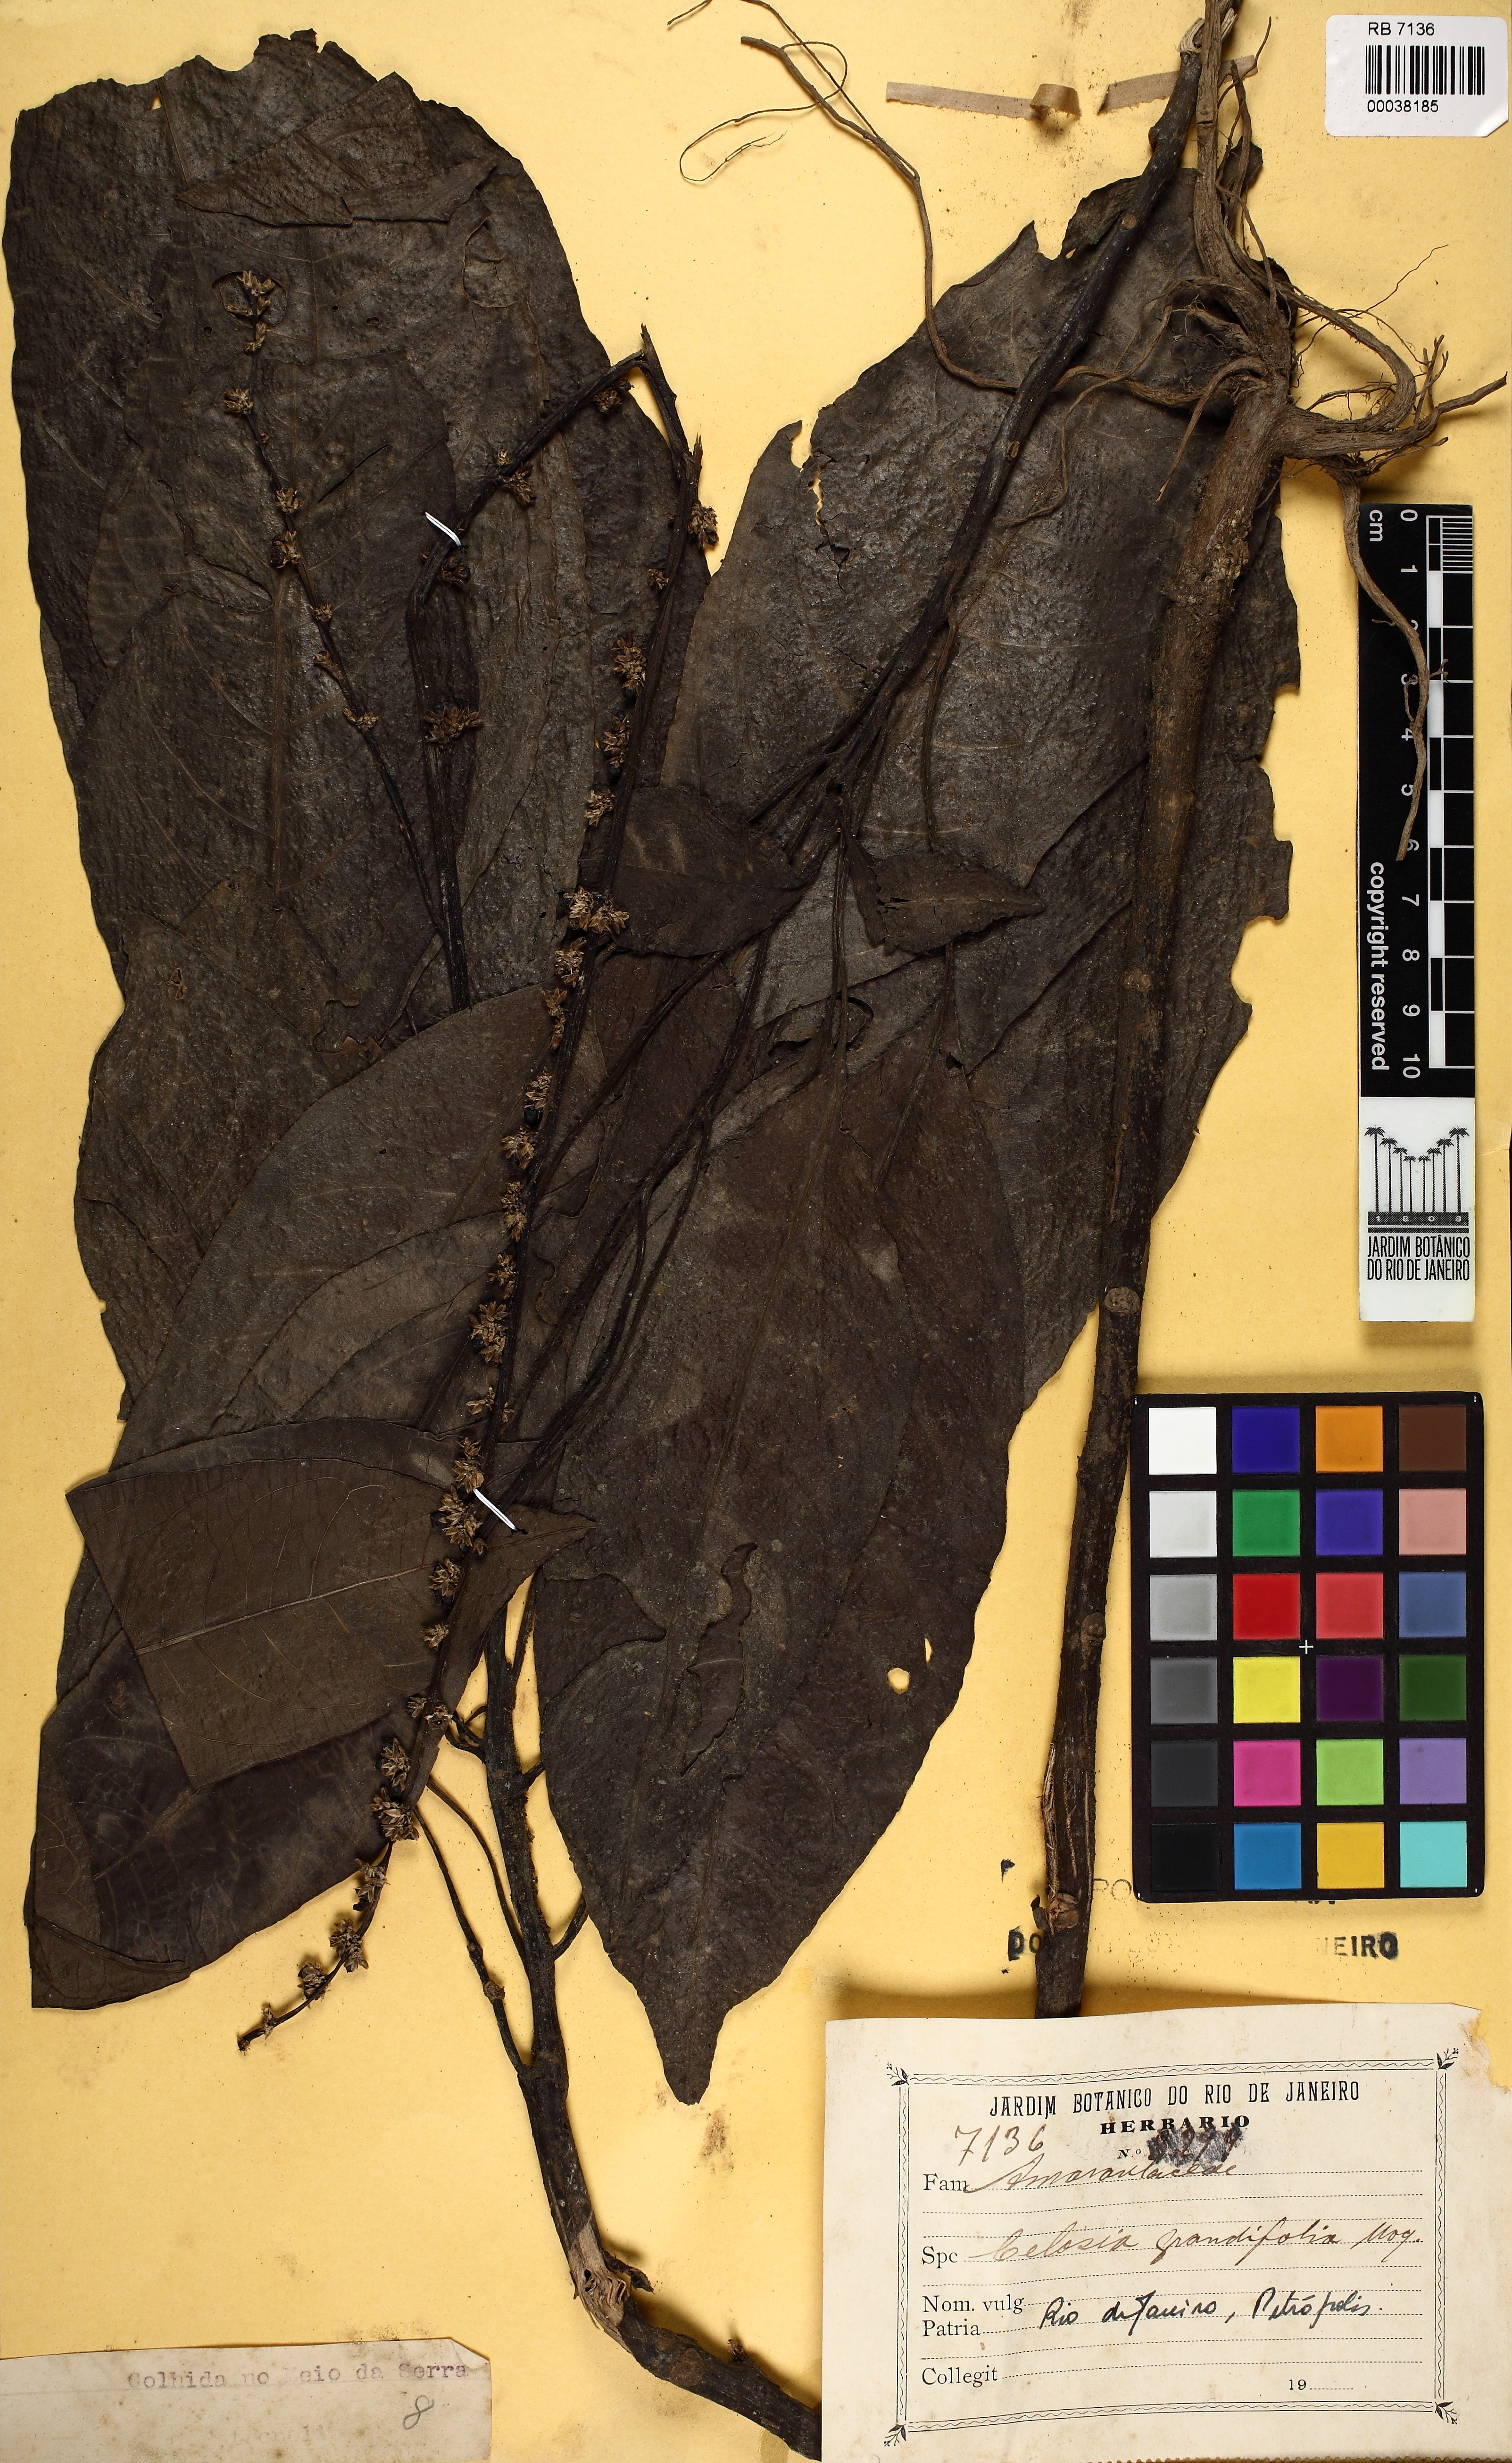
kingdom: Plantae
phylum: Tracheophyta
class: Magnoliopsida
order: Caryophyllales
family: Amaranthaceae
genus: Celosia
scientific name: Celosia grandifolia
